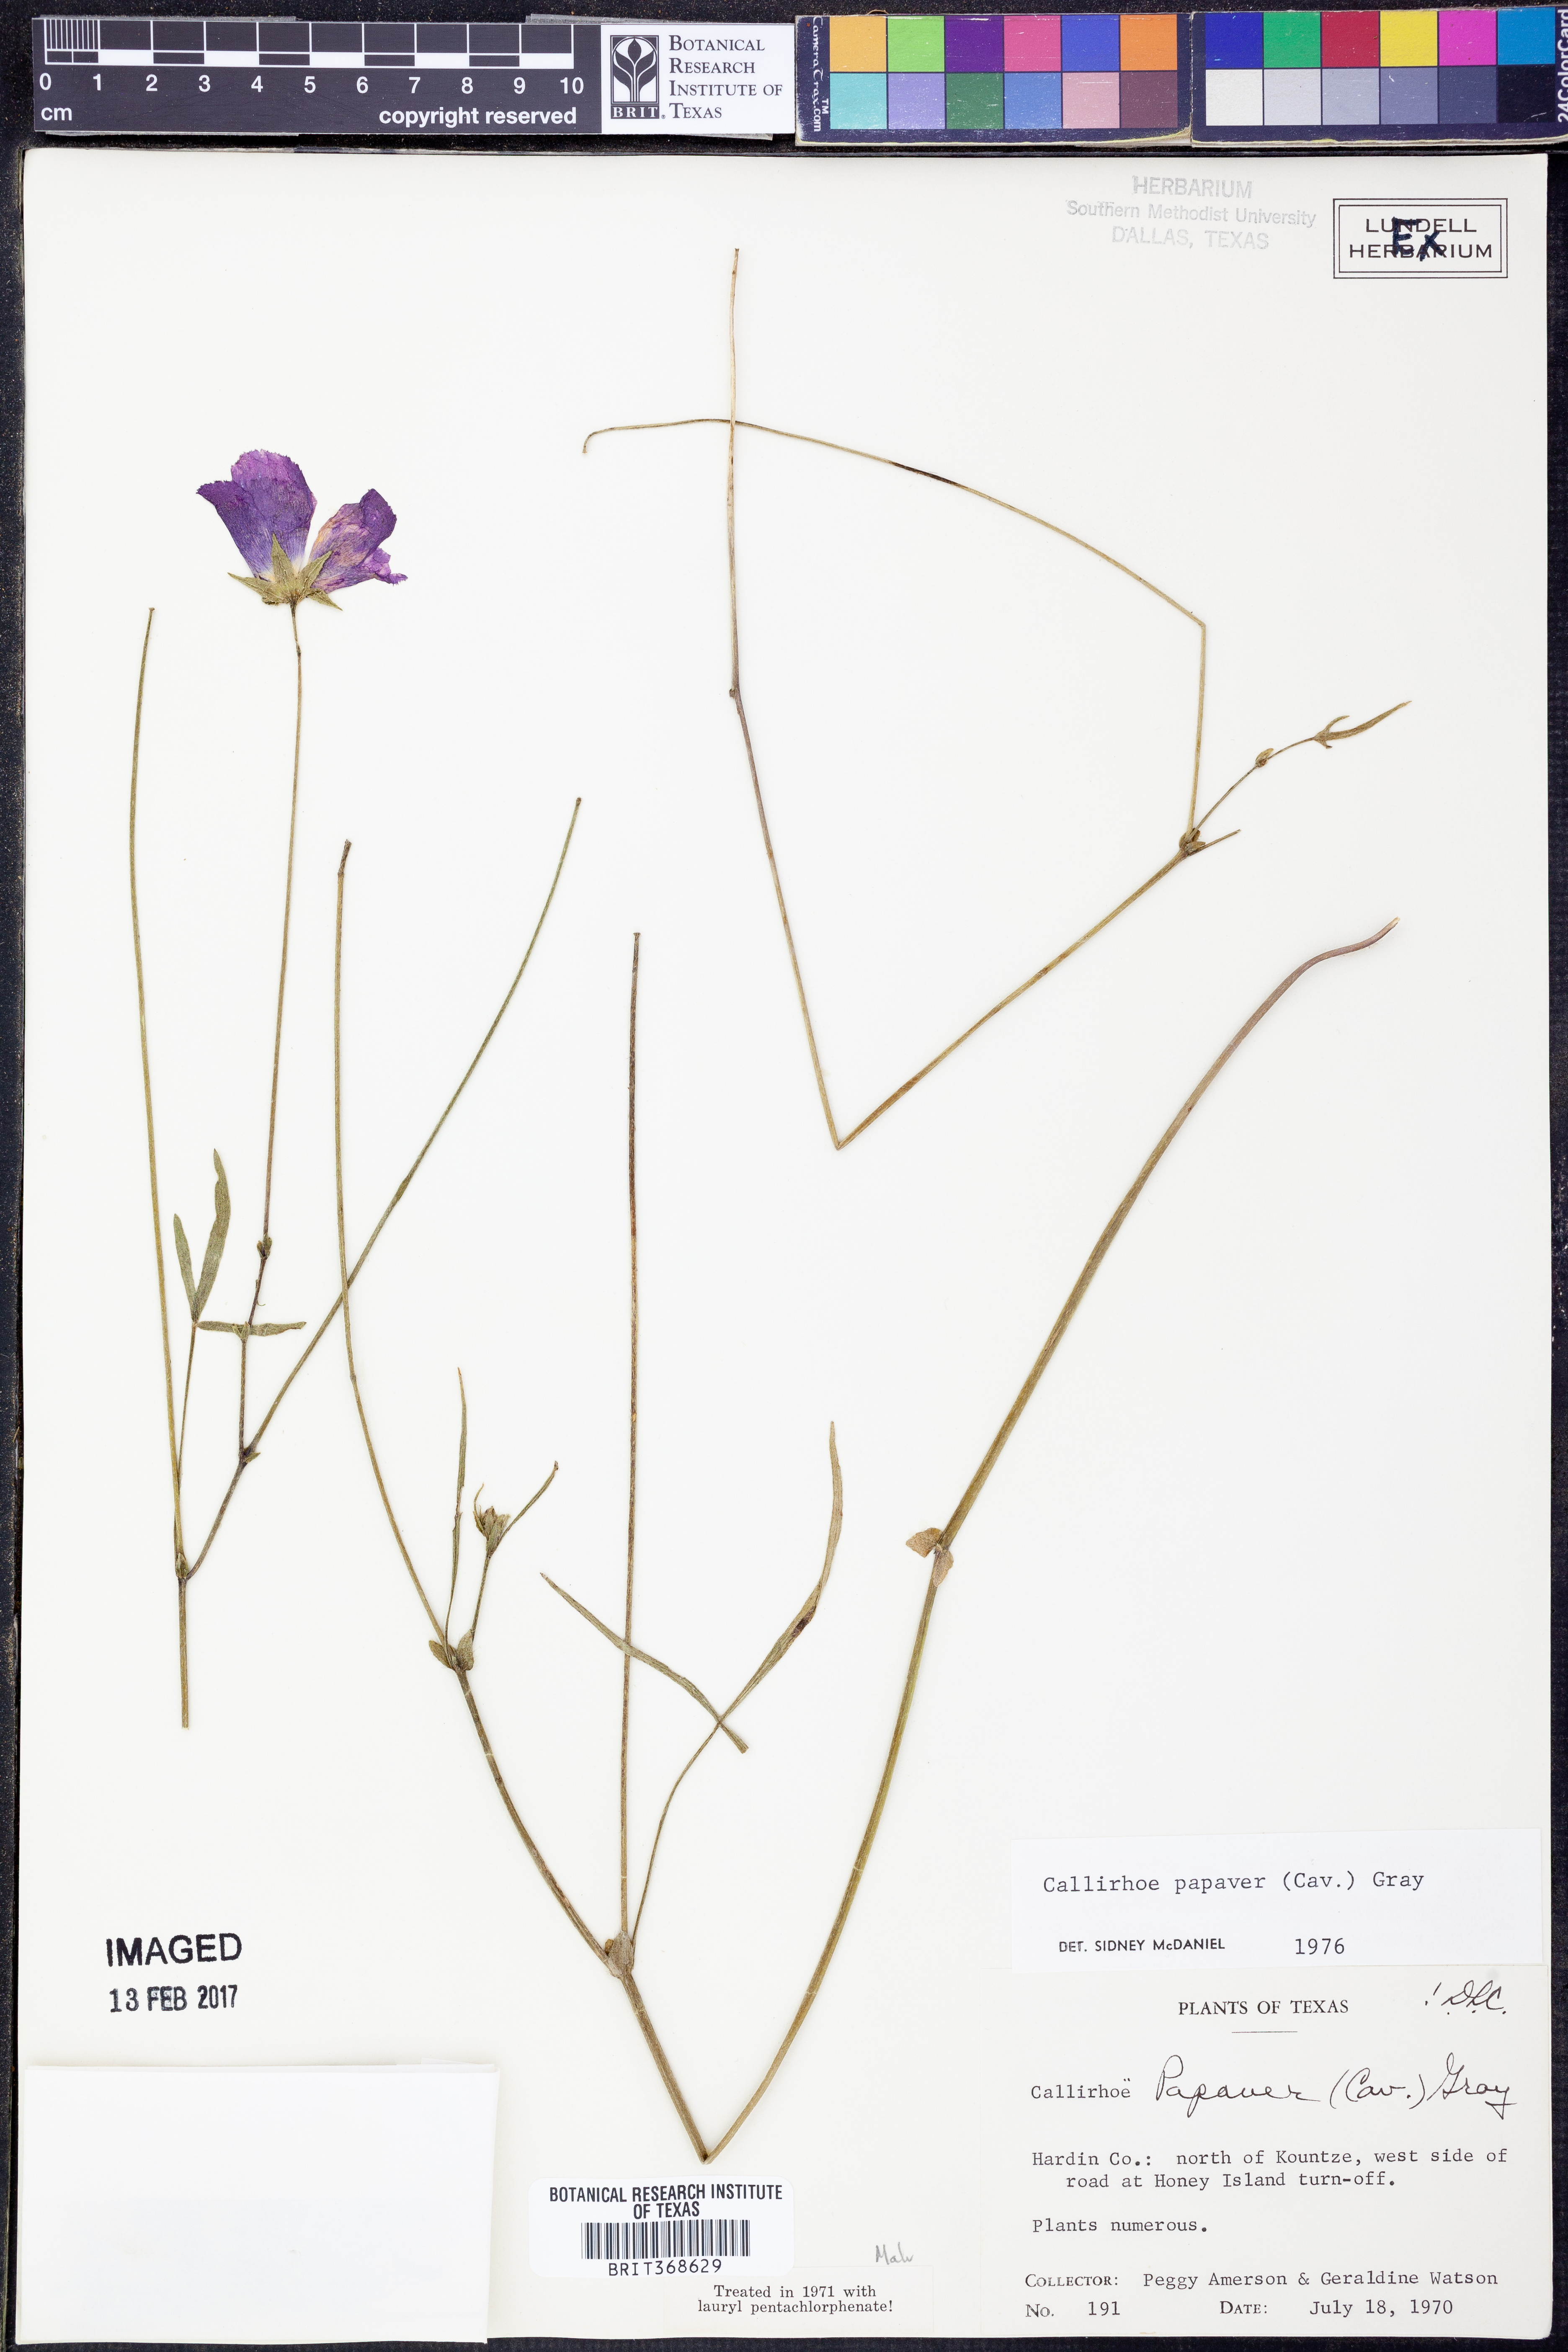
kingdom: Plantae
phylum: Tracheophyta
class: Magnoliopsida
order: Malvales
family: Malvaceae
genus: Callirhoe
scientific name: Callirhoe papaver
